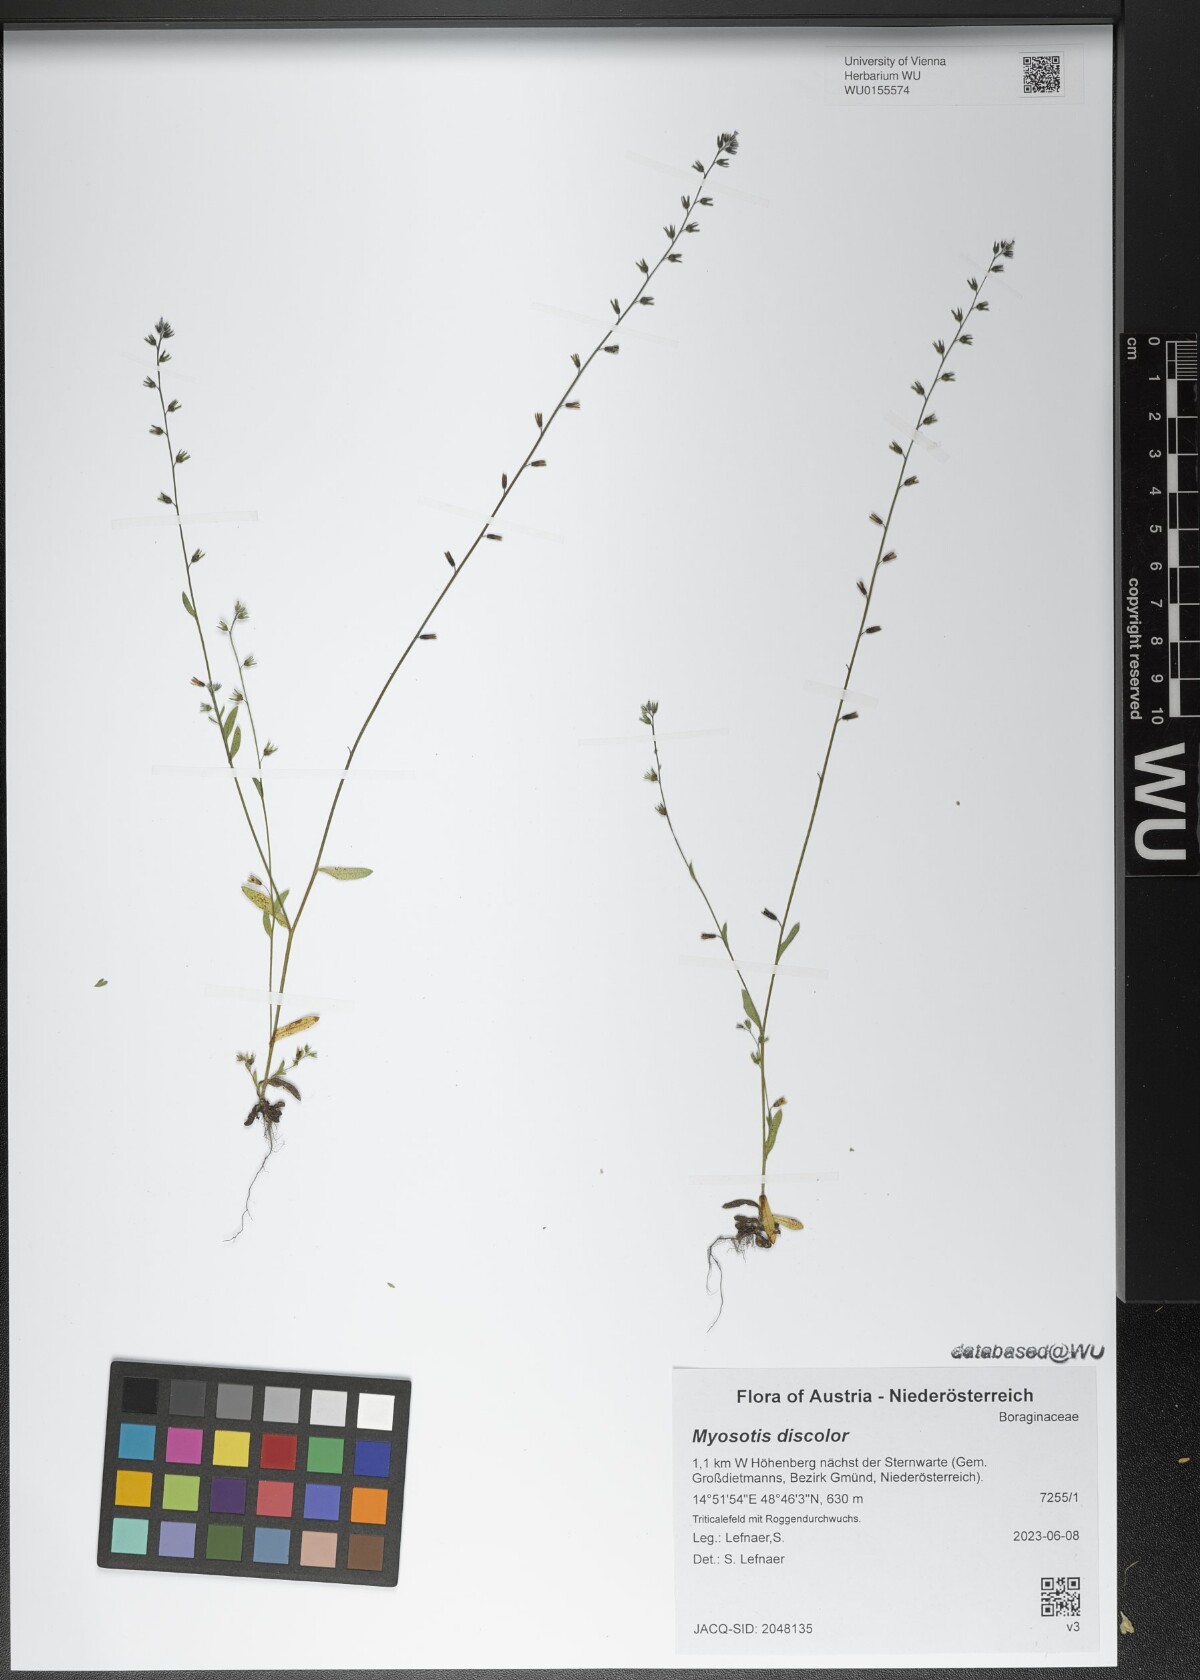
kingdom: Plantae
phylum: Tracheophyta
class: Magnoliopsida
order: Boraginales
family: Boraginaceae
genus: Myosotis
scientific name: Myosotis discolor
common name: Changing forget-me-not
